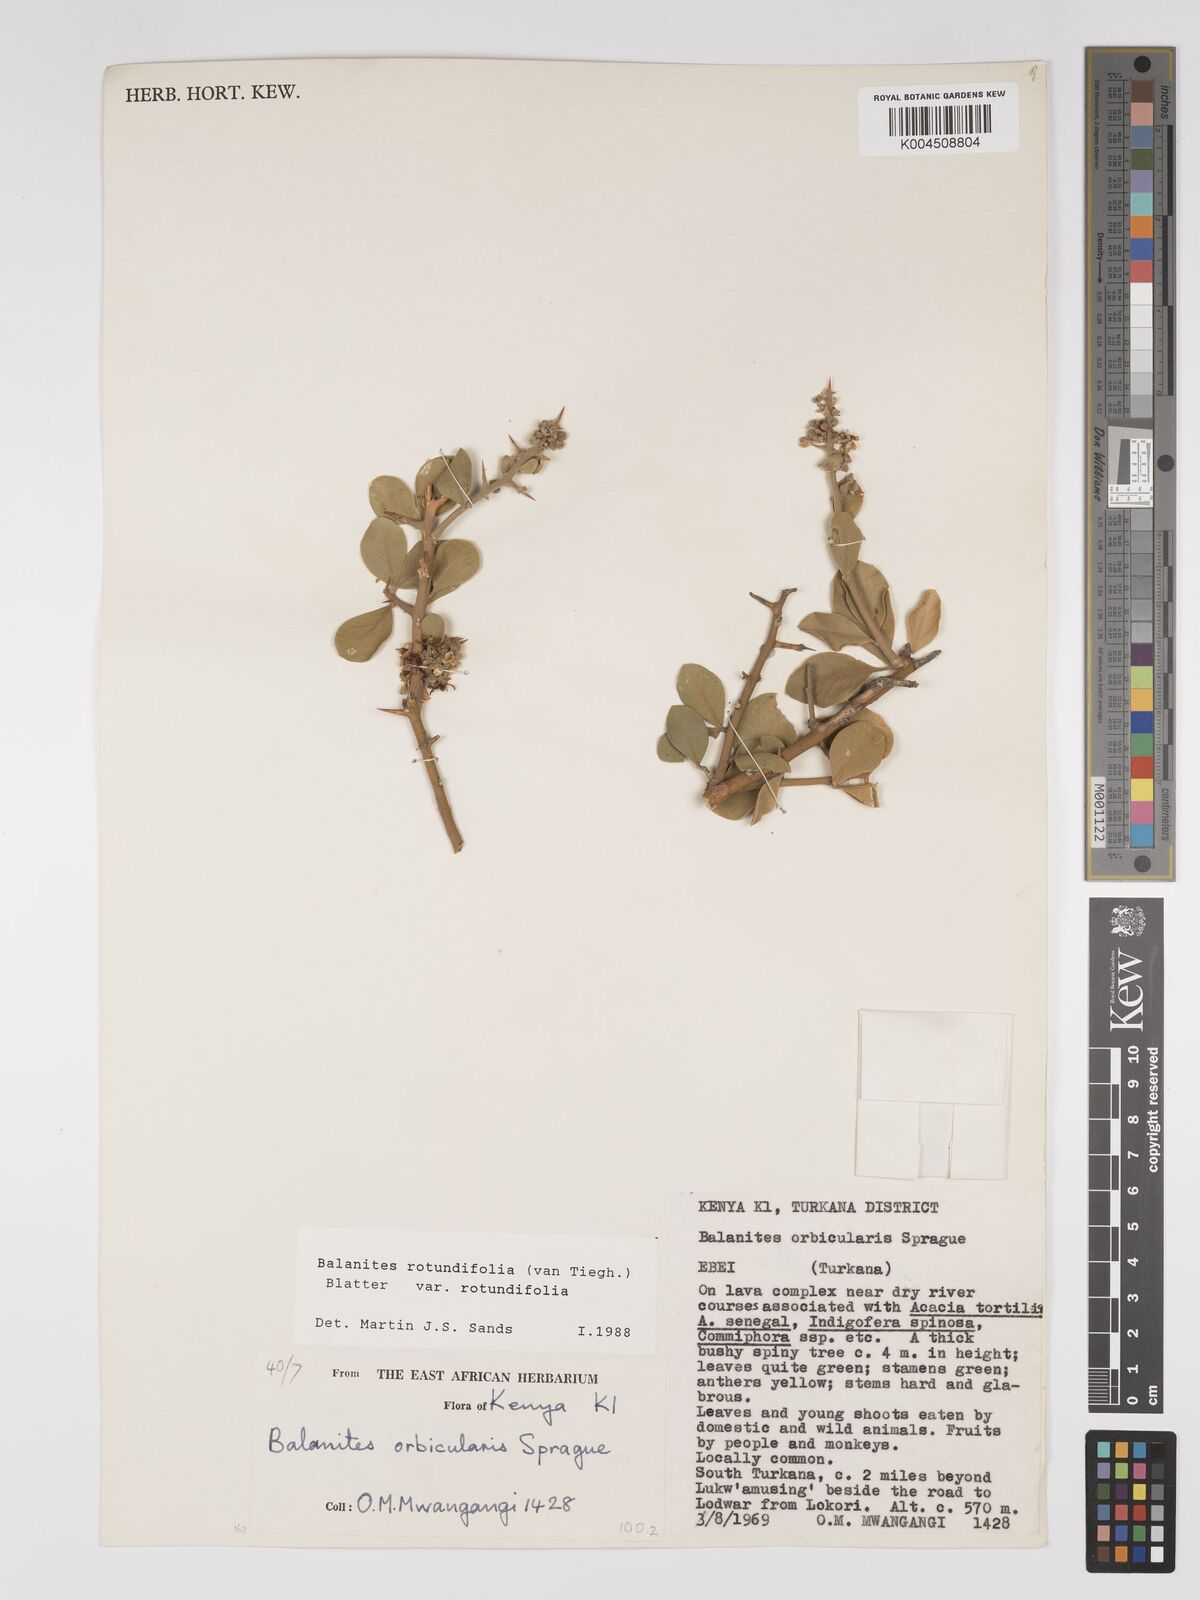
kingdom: Plantae
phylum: Tracheophyta
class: Magnoliopsida
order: Zygophyllales
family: Zygophyllaceae
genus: Balanites
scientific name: Balanites rotundifolia
